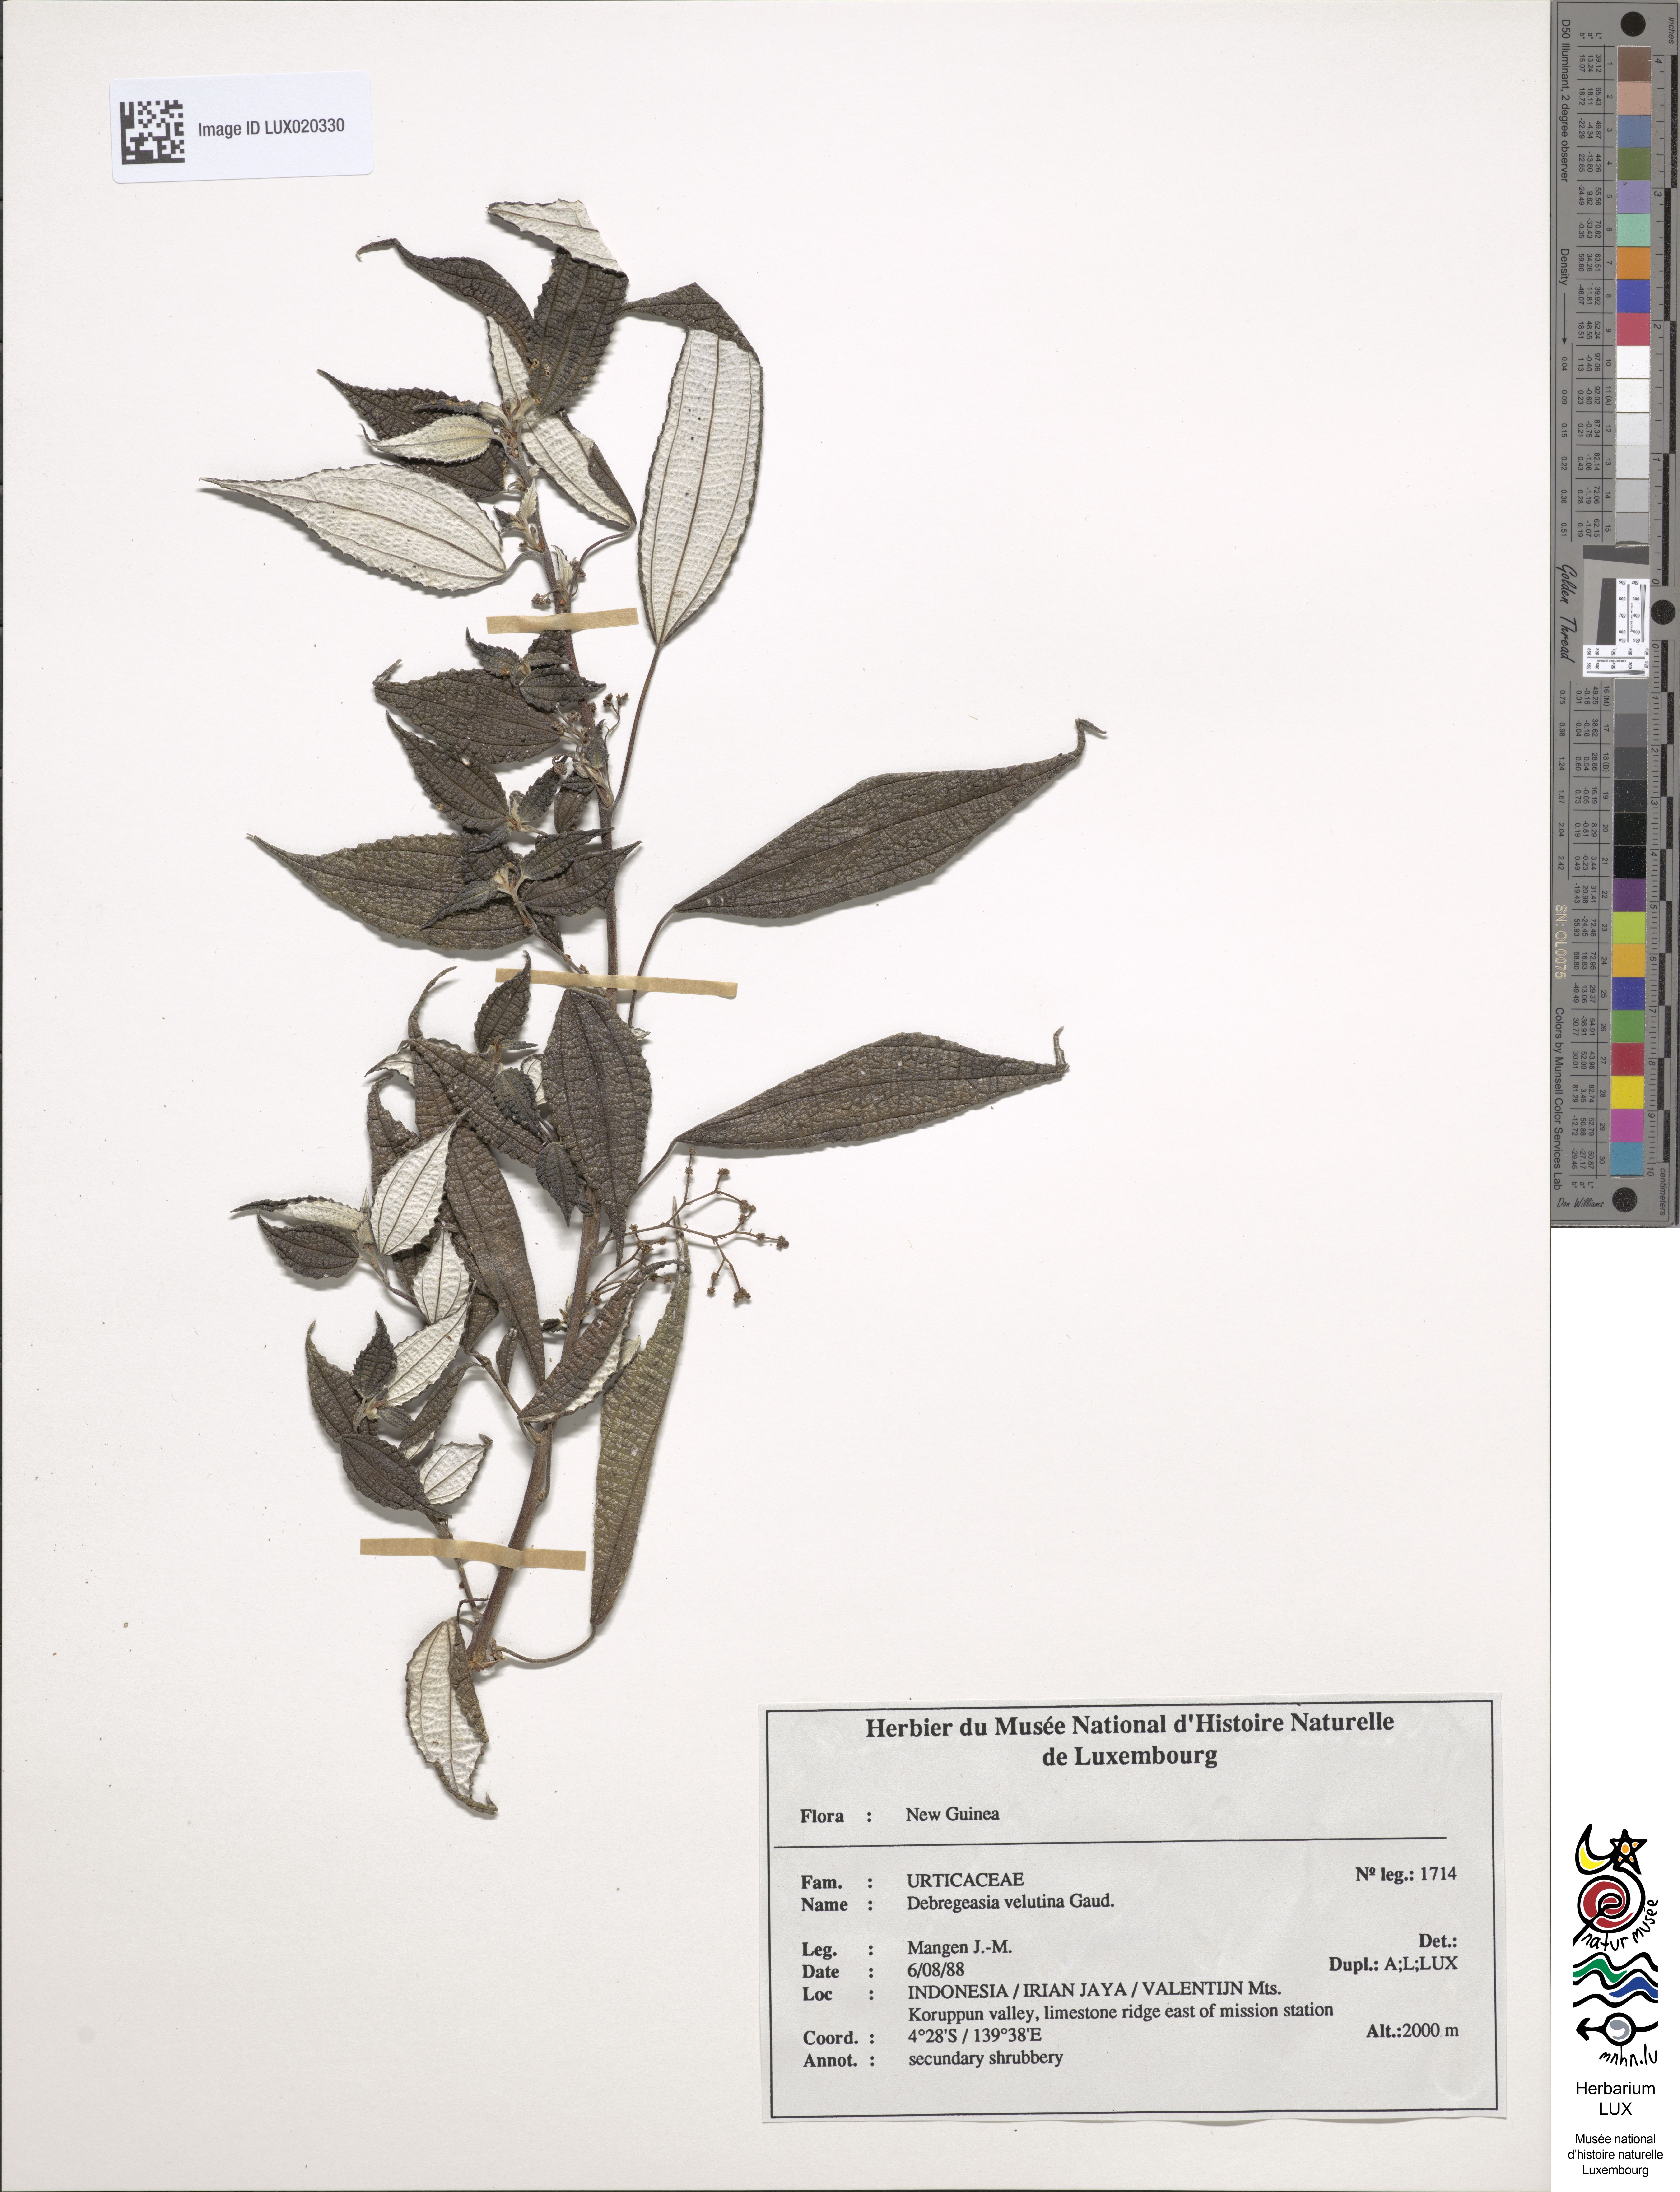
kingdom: Plantae
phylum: Tracheophyta
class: Magnoliopsida
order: Rosales
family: Urticaceae
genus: Debregeasia
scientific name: Debregeasia longifolia
